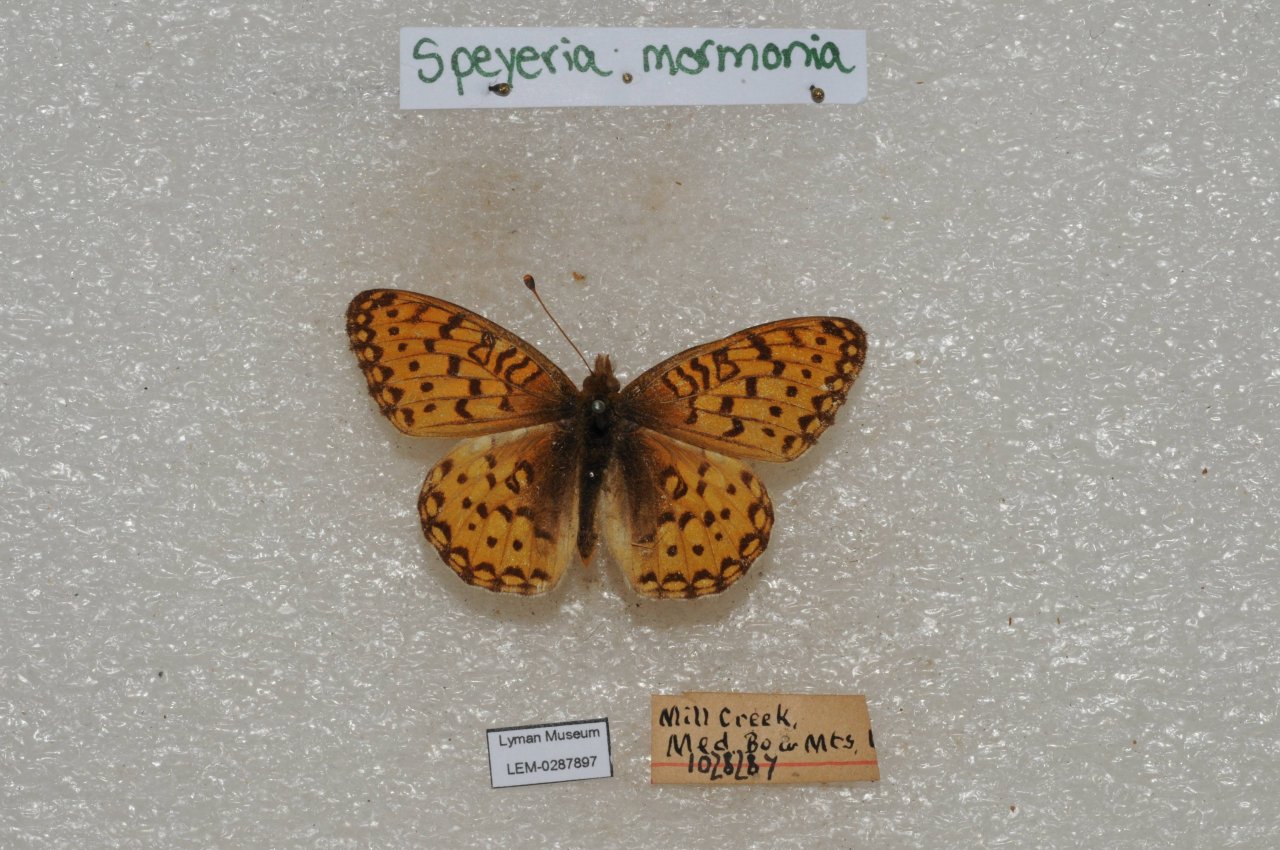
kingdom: Animalia
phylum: Arthropoda
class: Insecta
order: Lepidoptera
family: Nymphalidae
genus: Speyeria
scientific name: Speyeria mormonia
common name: Mormon Fritillary
